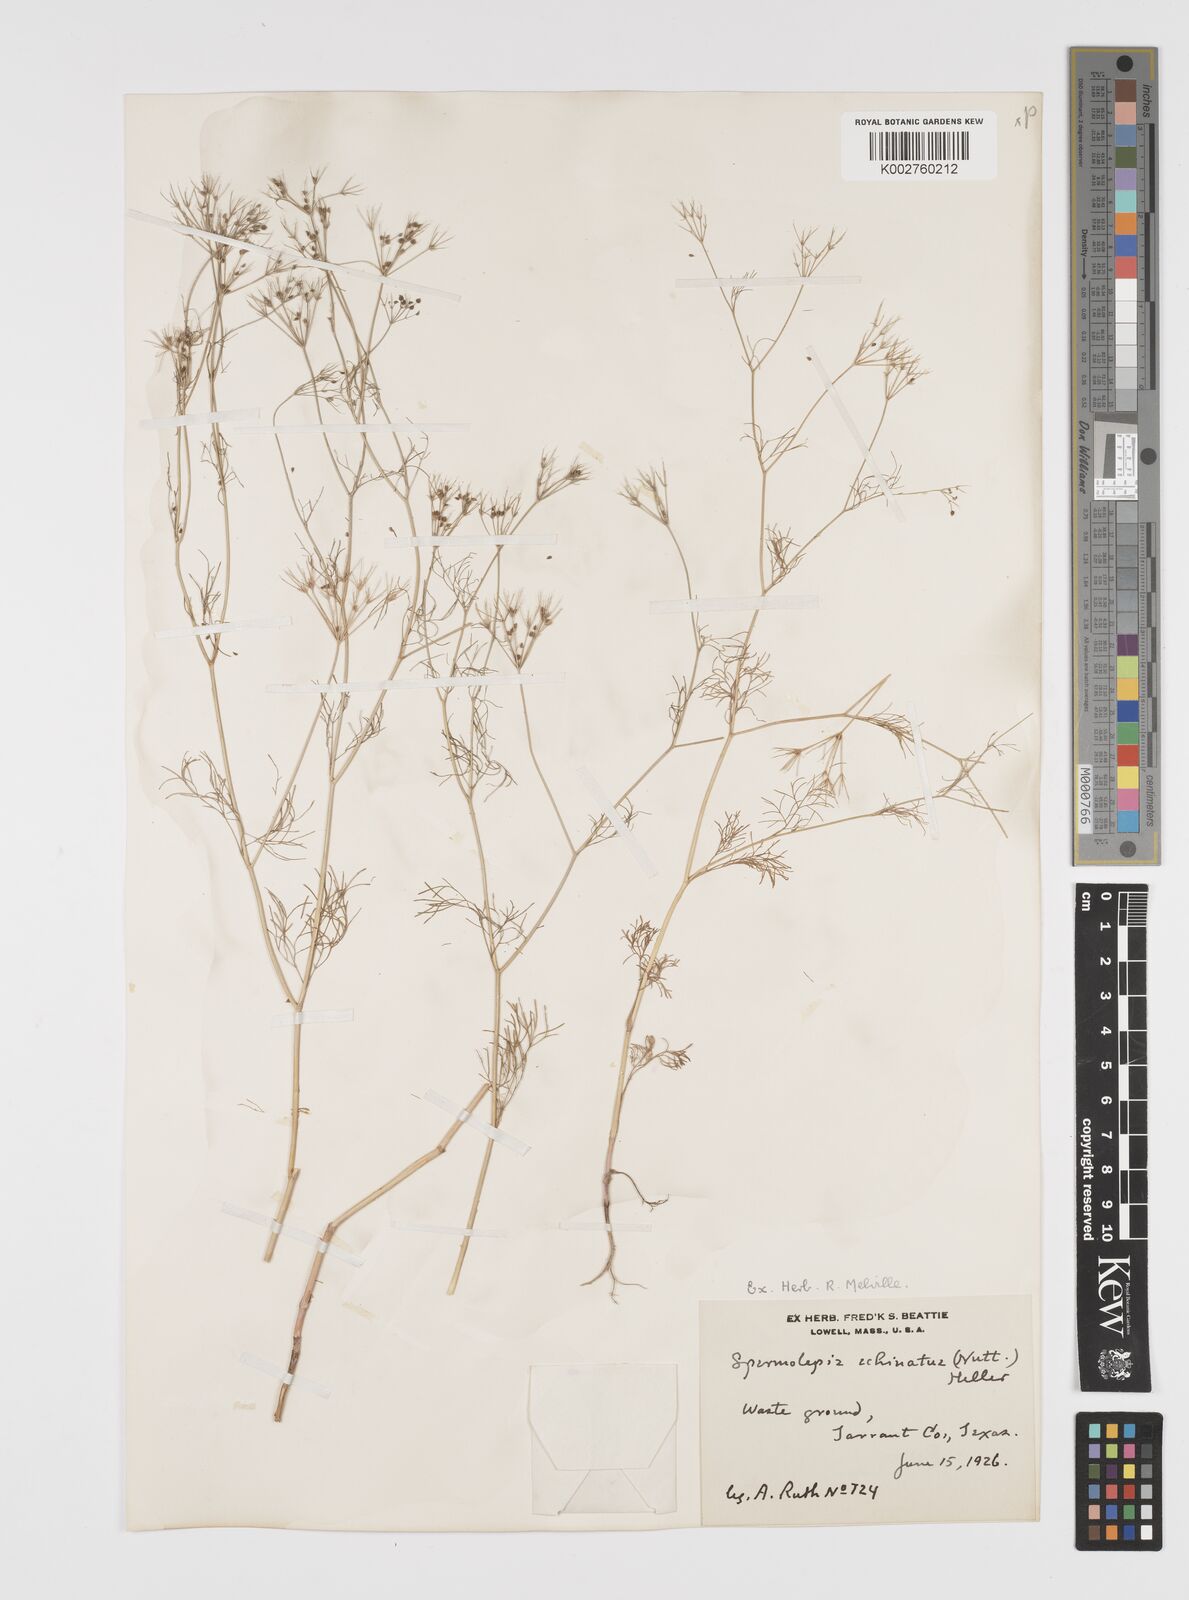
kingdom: Plantae
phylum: Tracheophyta
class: Magnoliopsida
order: Apiales
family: Apiaceae
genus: Spermolepis
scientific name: Spermolepis echinata
